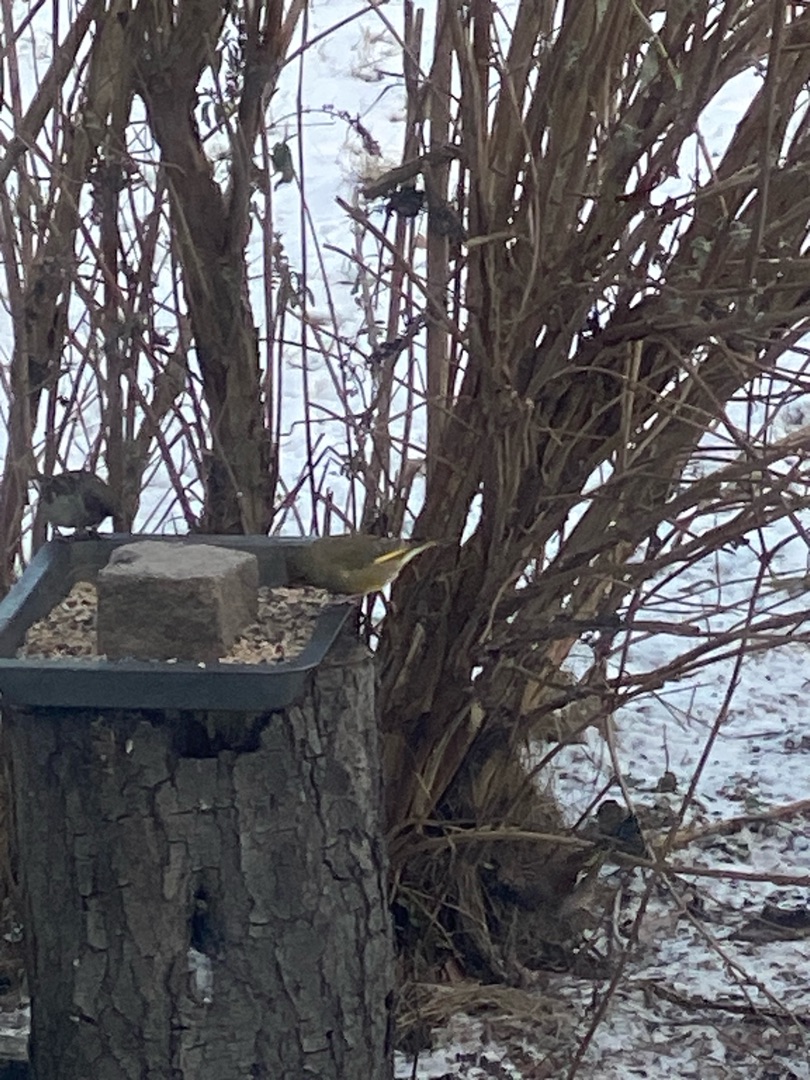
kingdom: Plantae
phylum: Tracheophyta
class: Liliopsida
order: Poales
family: Poaceae
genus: Chloris
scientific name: Chloris chloris
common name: Grønirisk
